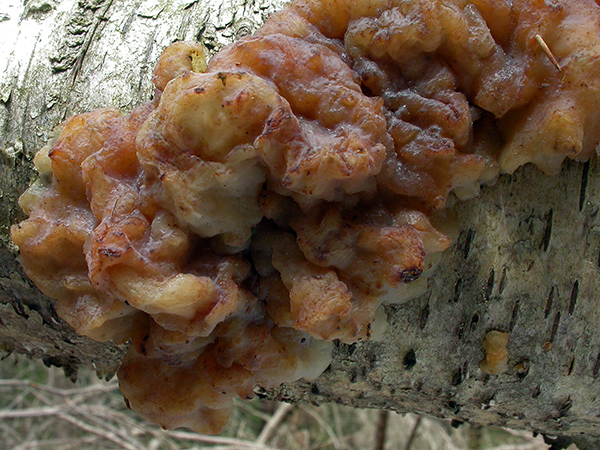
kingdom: Fungi
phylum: Basidiomycota
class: Tremellomycetes
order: Tremellales
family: Exidiaceae
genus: Exidia
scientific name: Exidia candida
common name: brusk-bævretop
